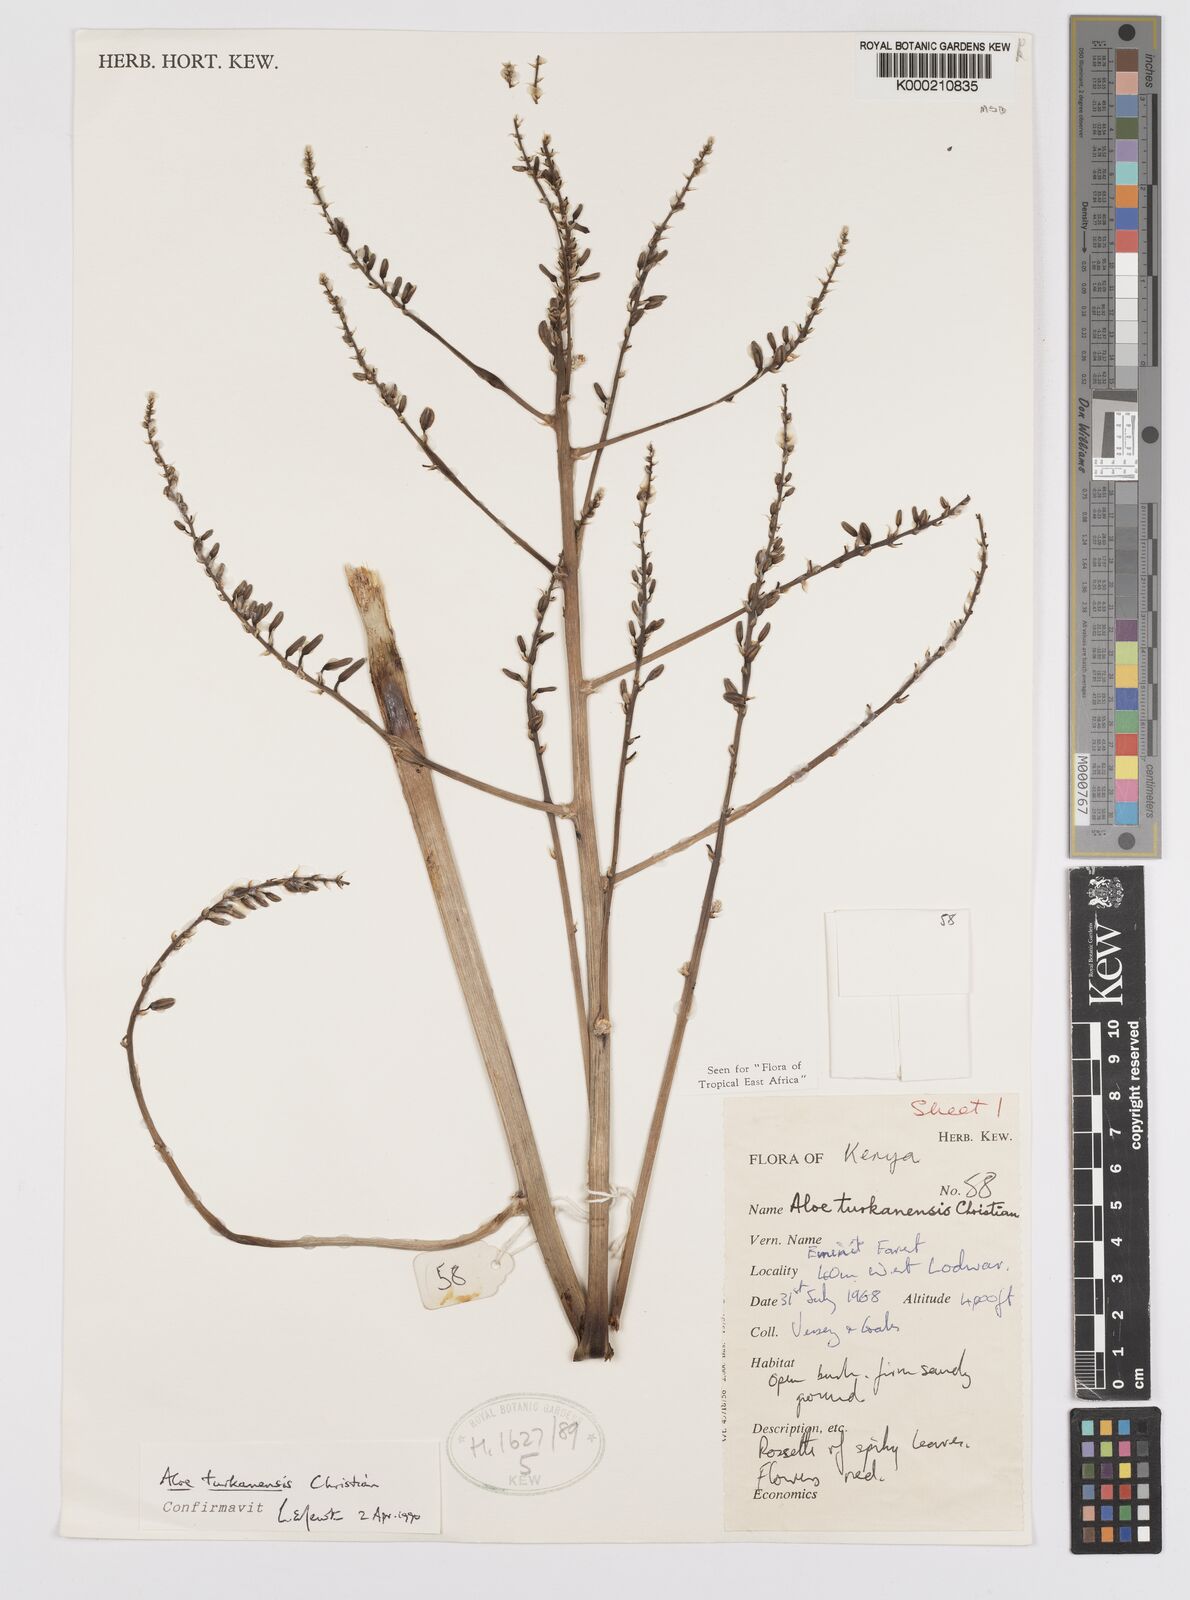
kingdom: Plantae
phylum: Tracheophyta
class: Liliopsida
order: Asparagales
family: Asphodelaceae
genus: Aloe
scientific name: Aloe turkanensis
